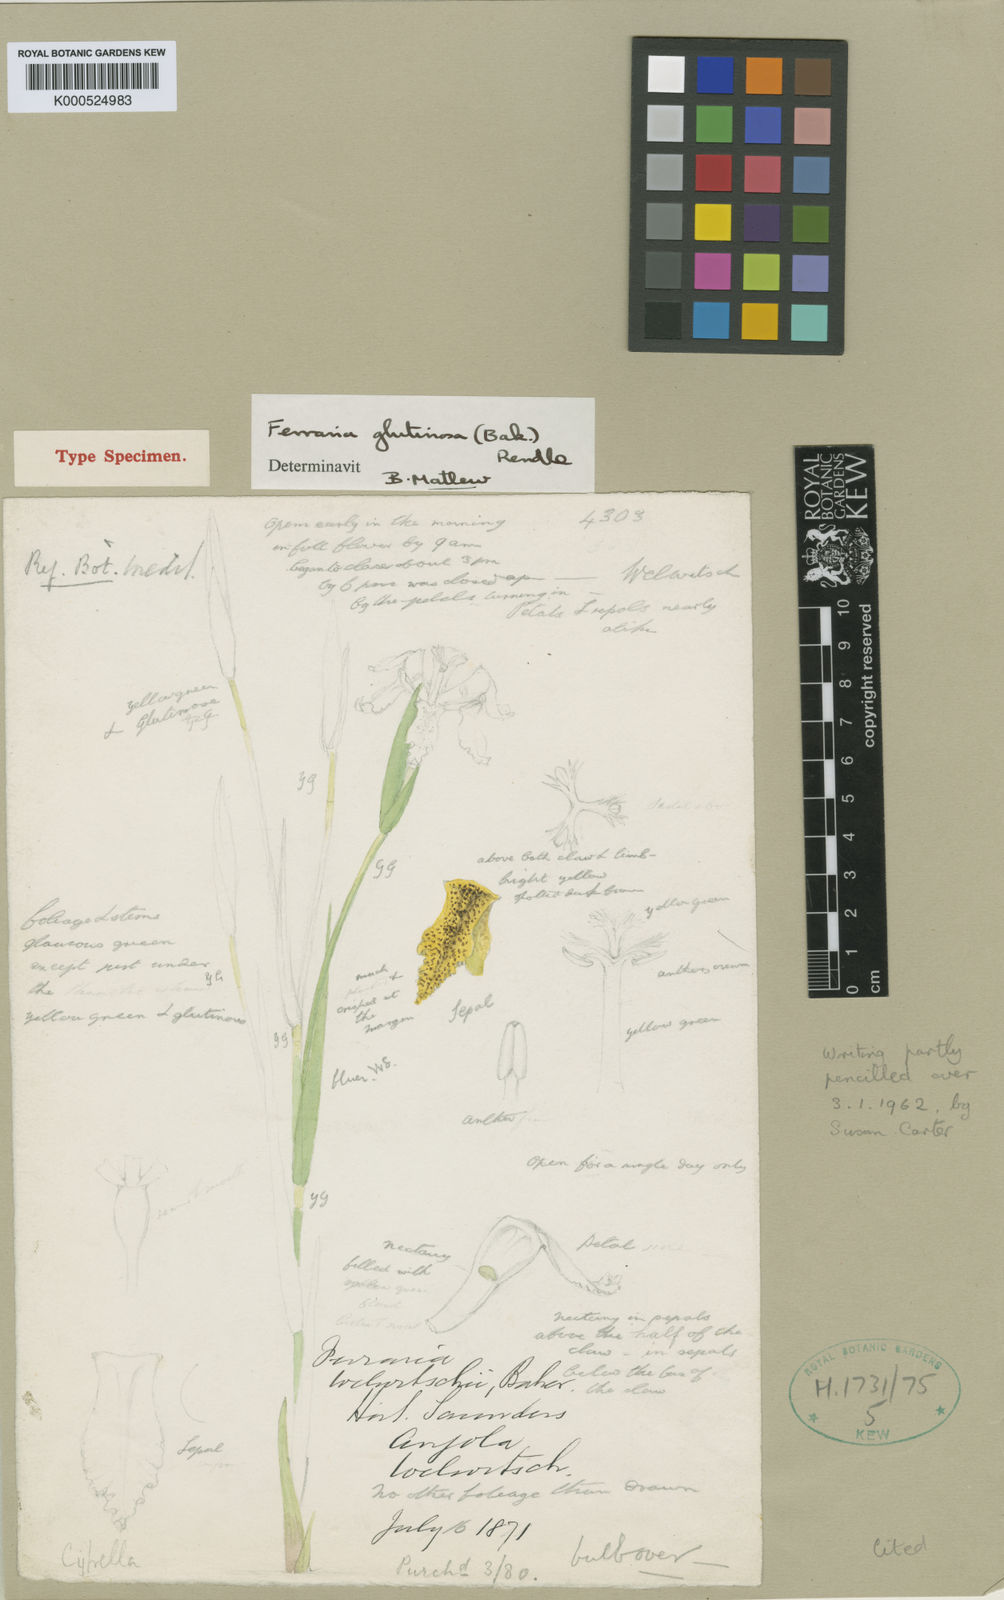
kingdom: Plantae
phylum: Tracheophyta
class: Liliopsida
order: Asparagales
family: Iridaceae
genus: Ferraria
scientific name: Ferraria glutinosa
